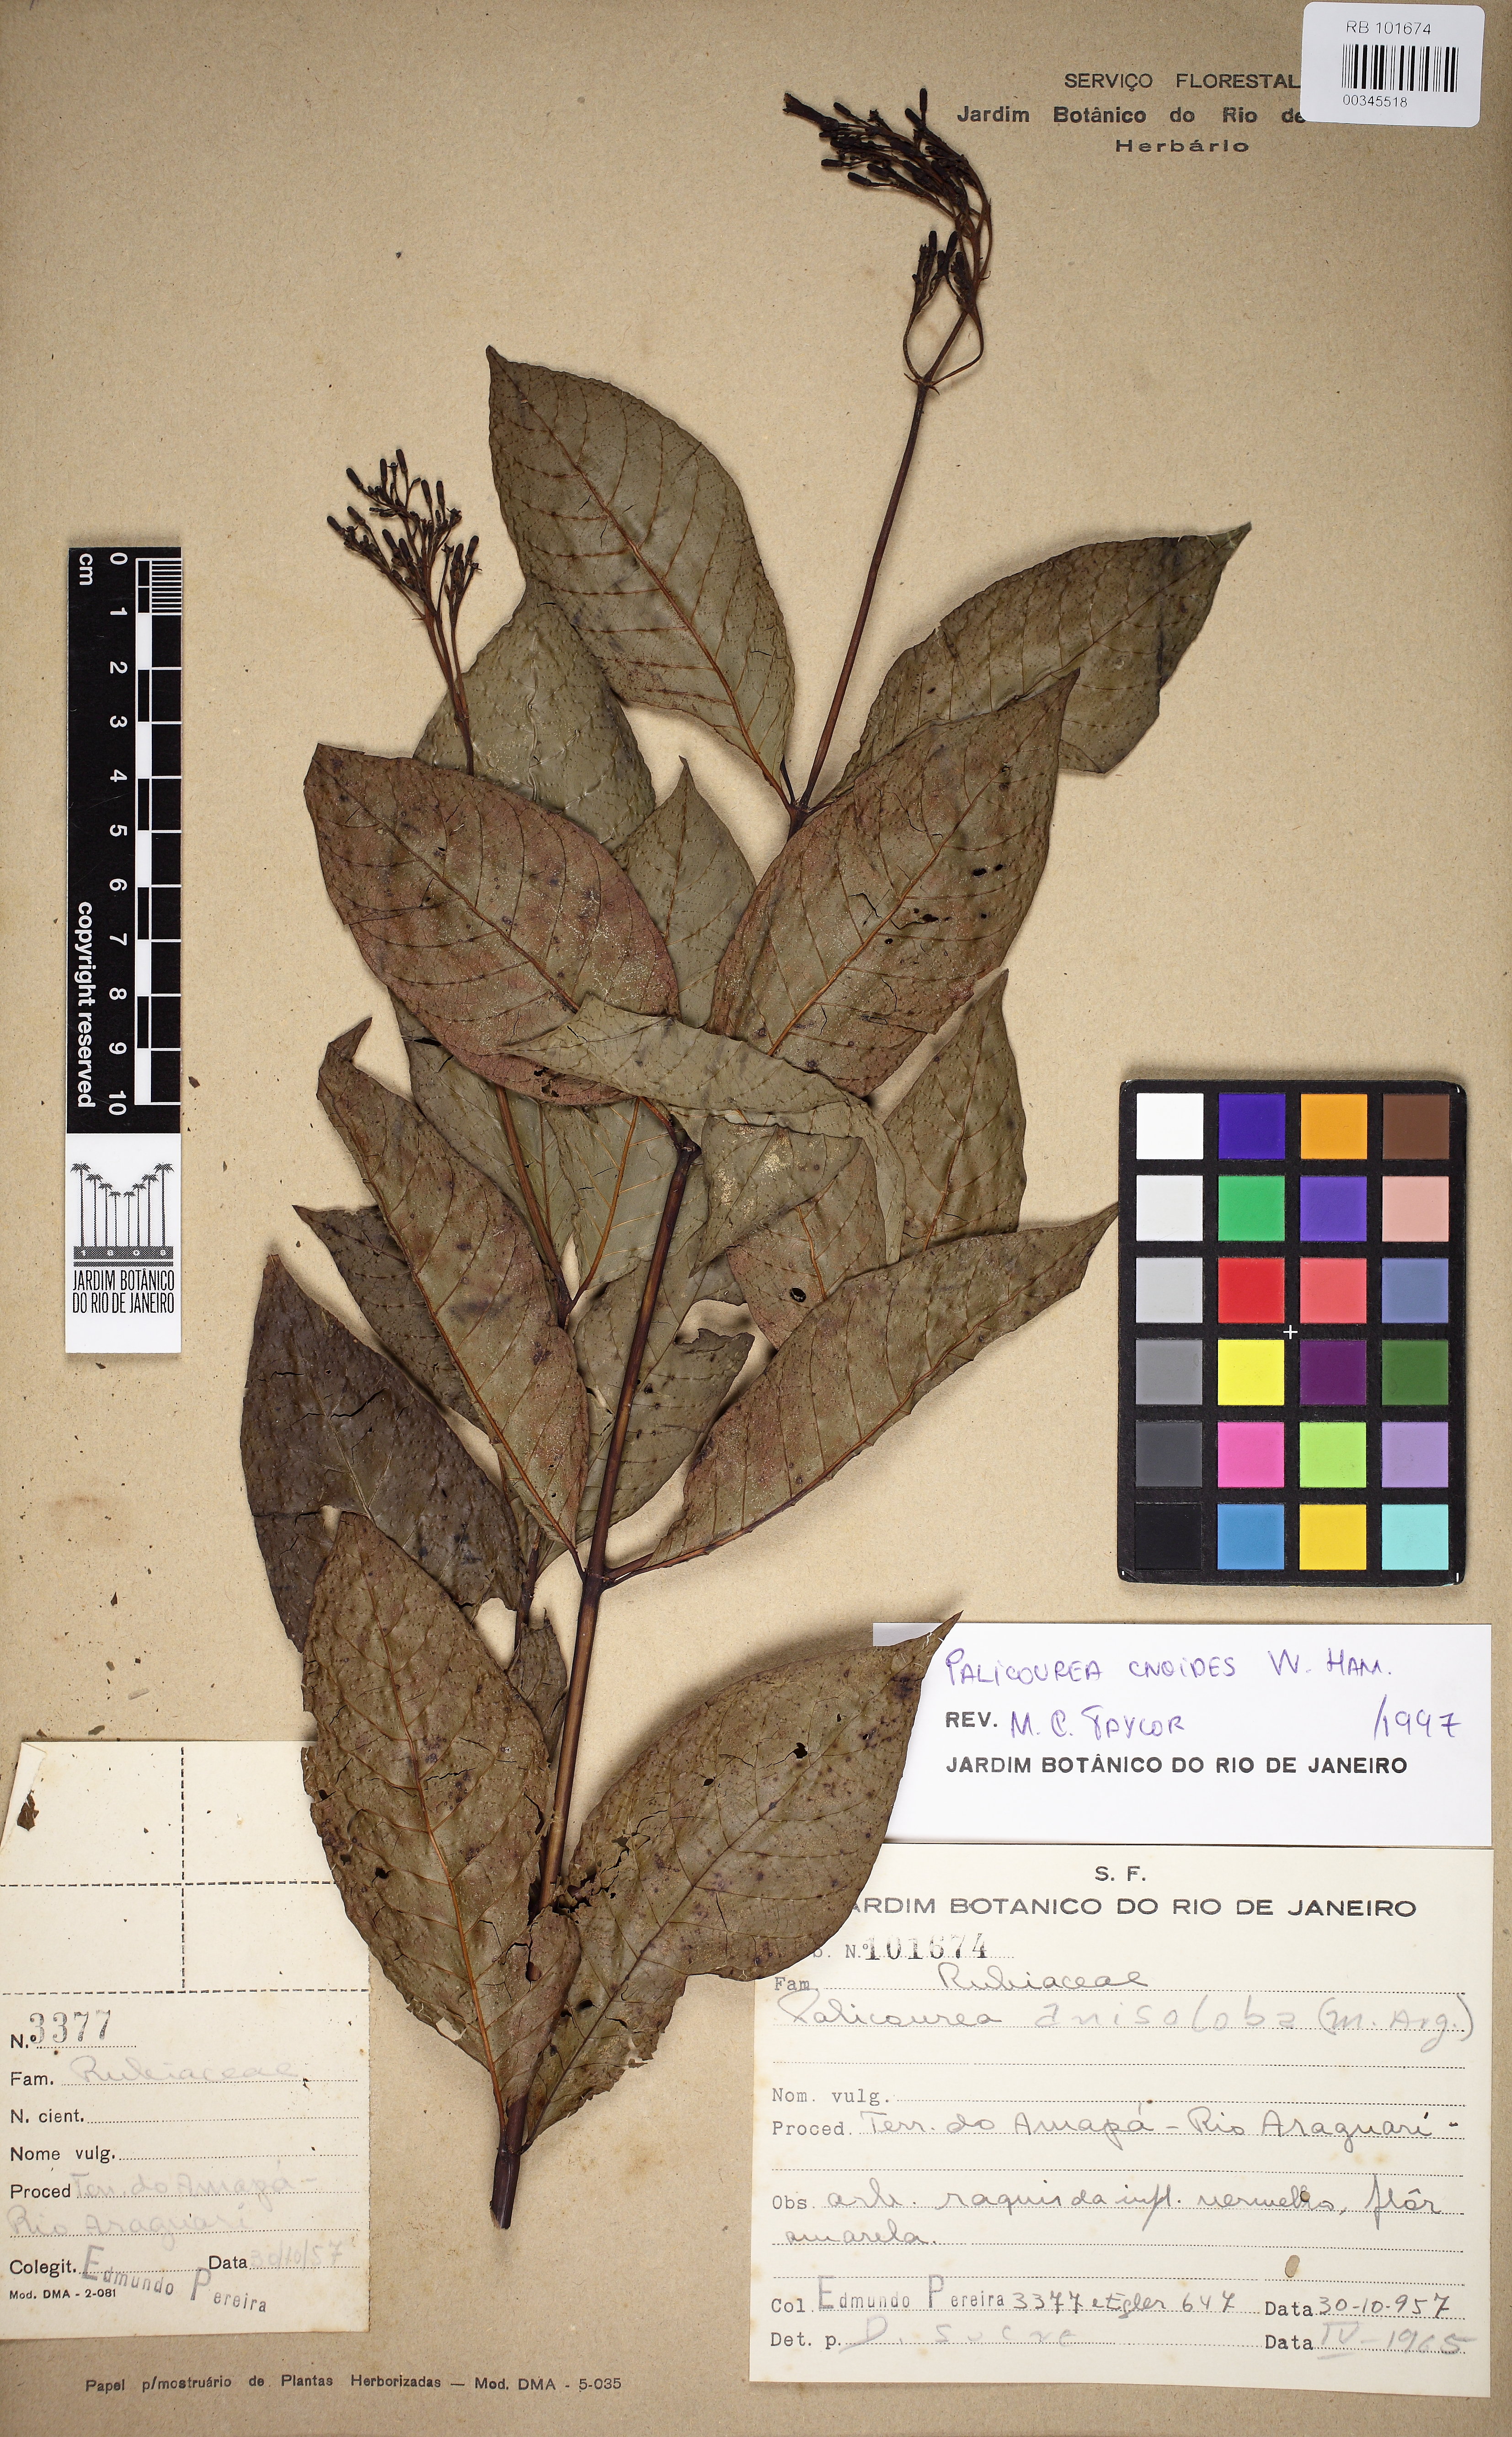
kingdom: Plantae
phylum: Tracheophyta
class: Magnoliopsida
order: Gentianales
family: Rubiaceae
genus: Palicourea
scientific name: Palicourea
